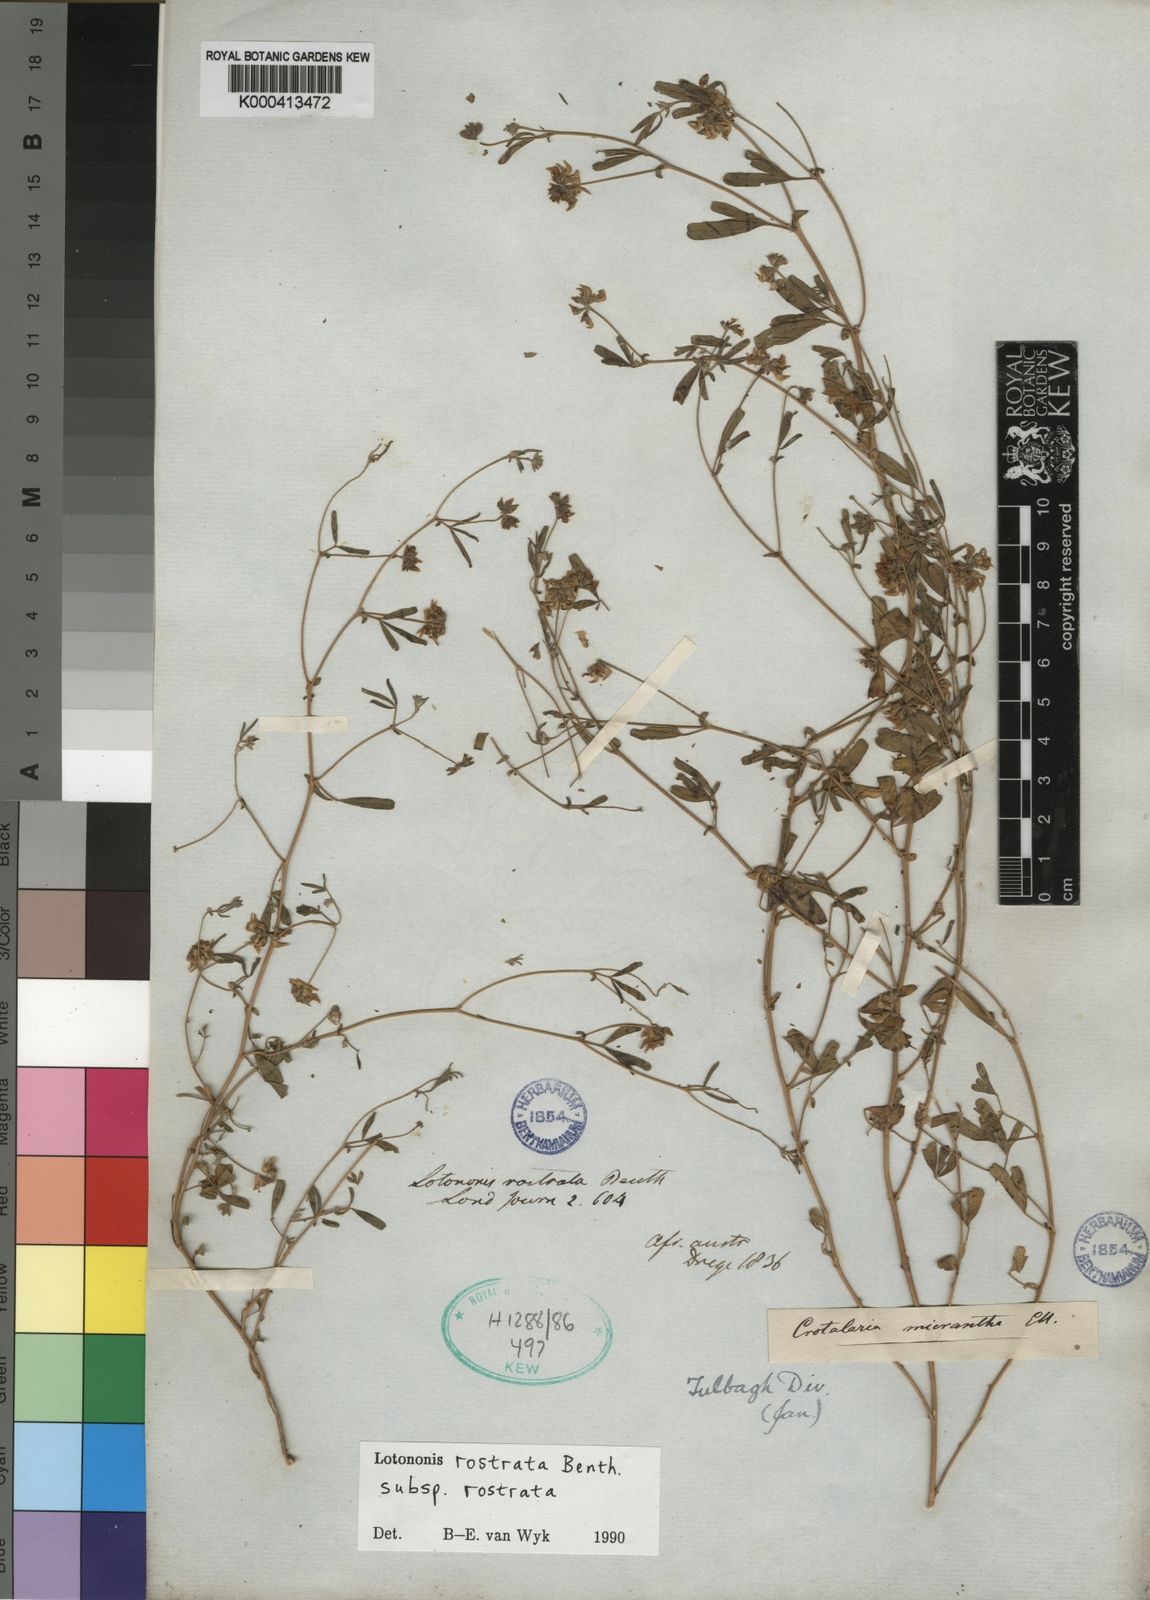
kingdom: Plantae
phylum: Tracheophyta
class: Magnoliopsida
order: Fabales
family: Fabaceae
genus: Lotononis
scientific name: Lotononis rostrata
